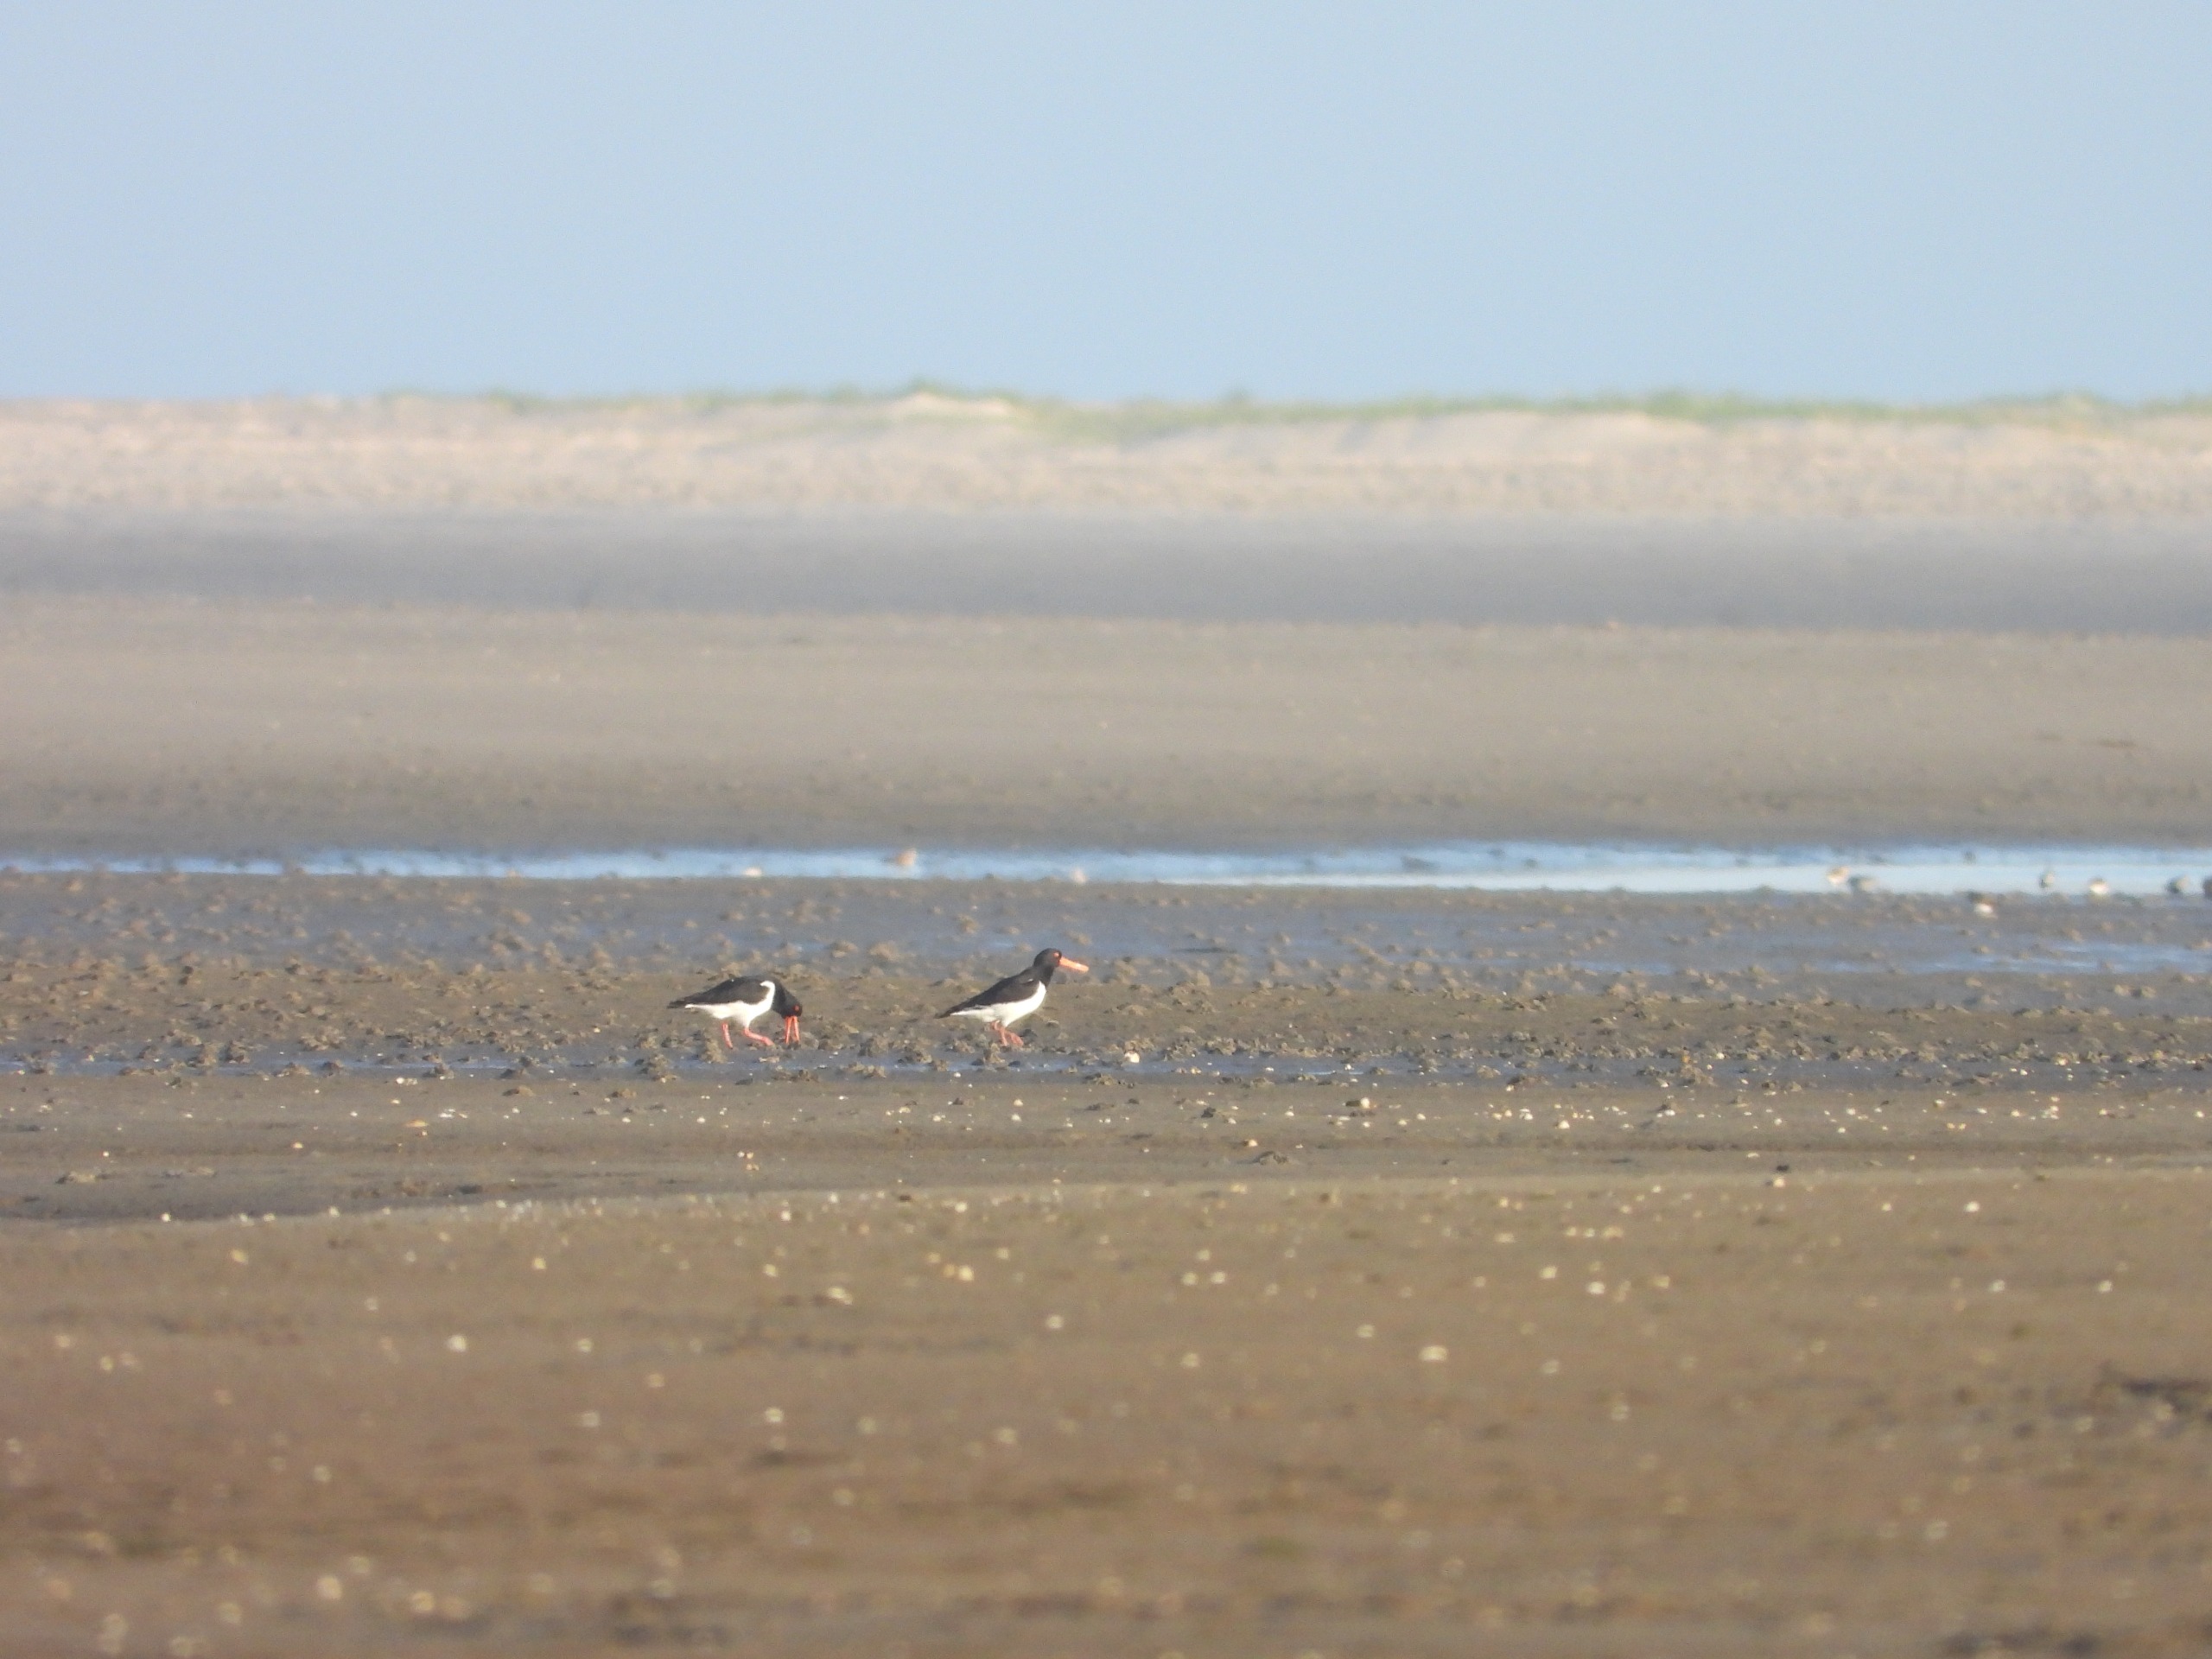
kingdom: Animalia
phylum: Chordata
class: Aves
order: Charadriiformes
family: Haematopodidae
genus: Haematopus
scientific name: Haematopus ostralegus
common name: Strandskade
